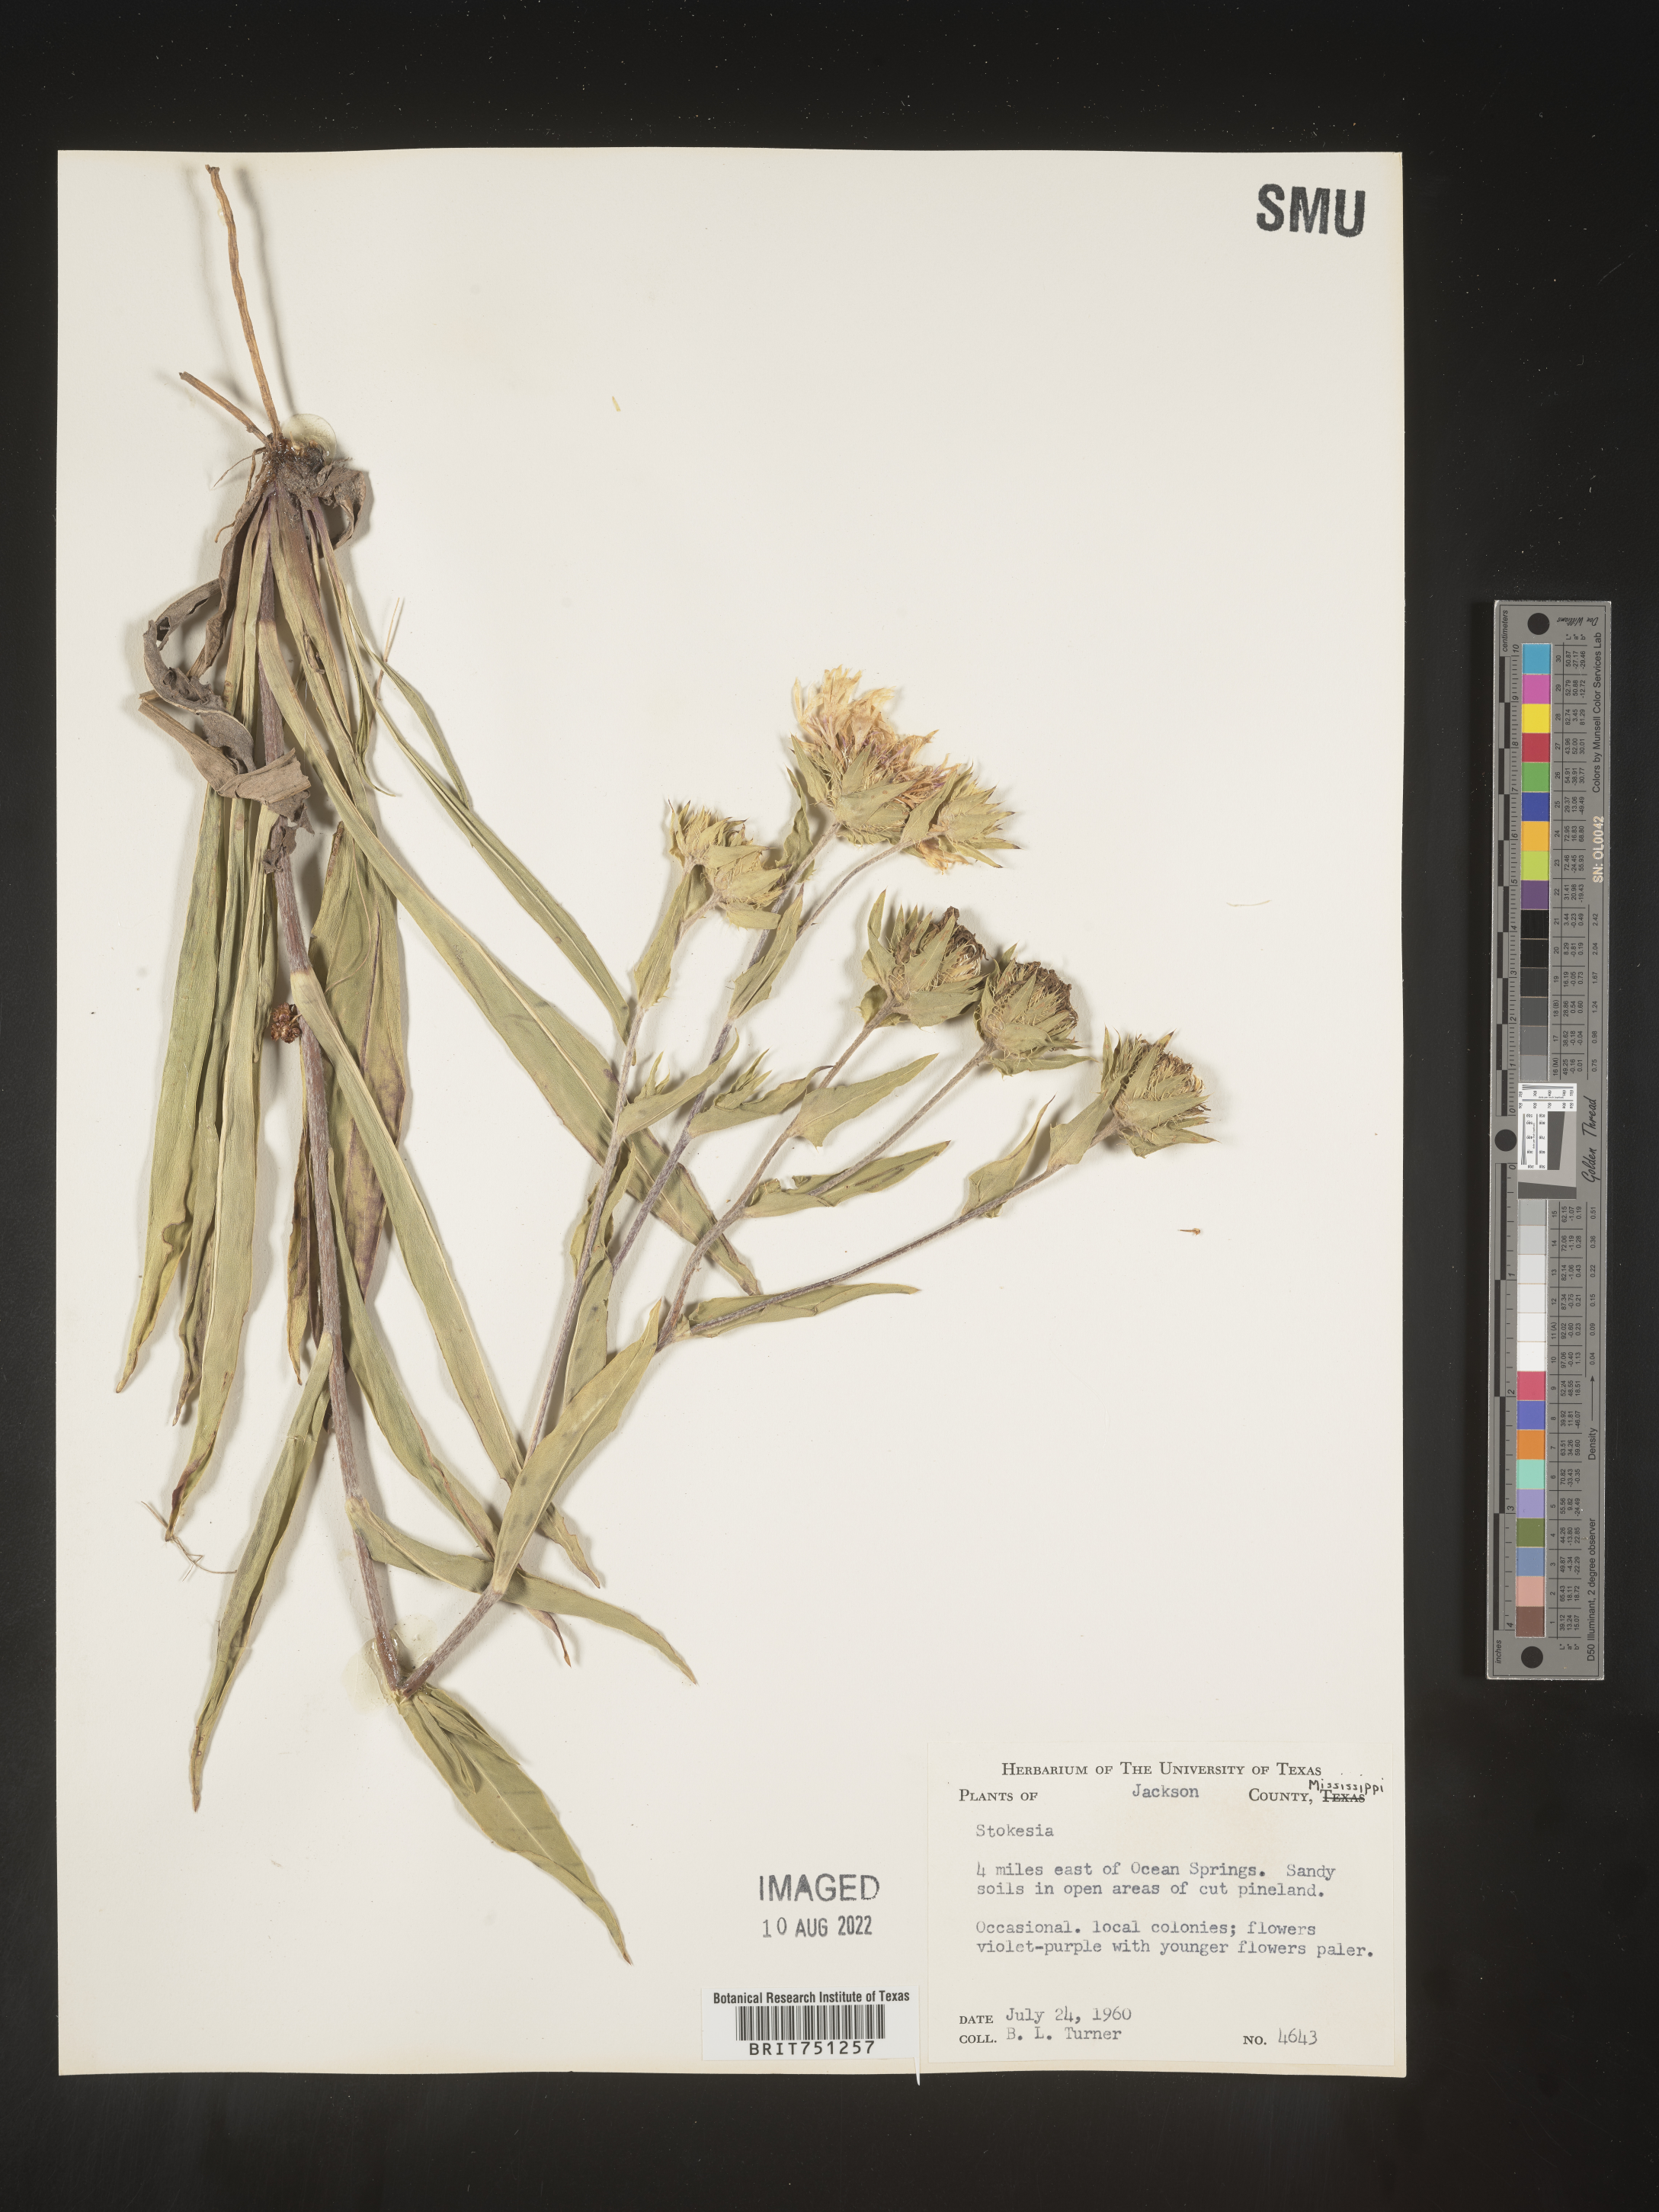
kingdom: Plantae
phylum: Tracheophyta
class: Magnoliopsida
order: Asterales
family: Asteraceae
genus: Stokesia
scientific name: Stokesia
